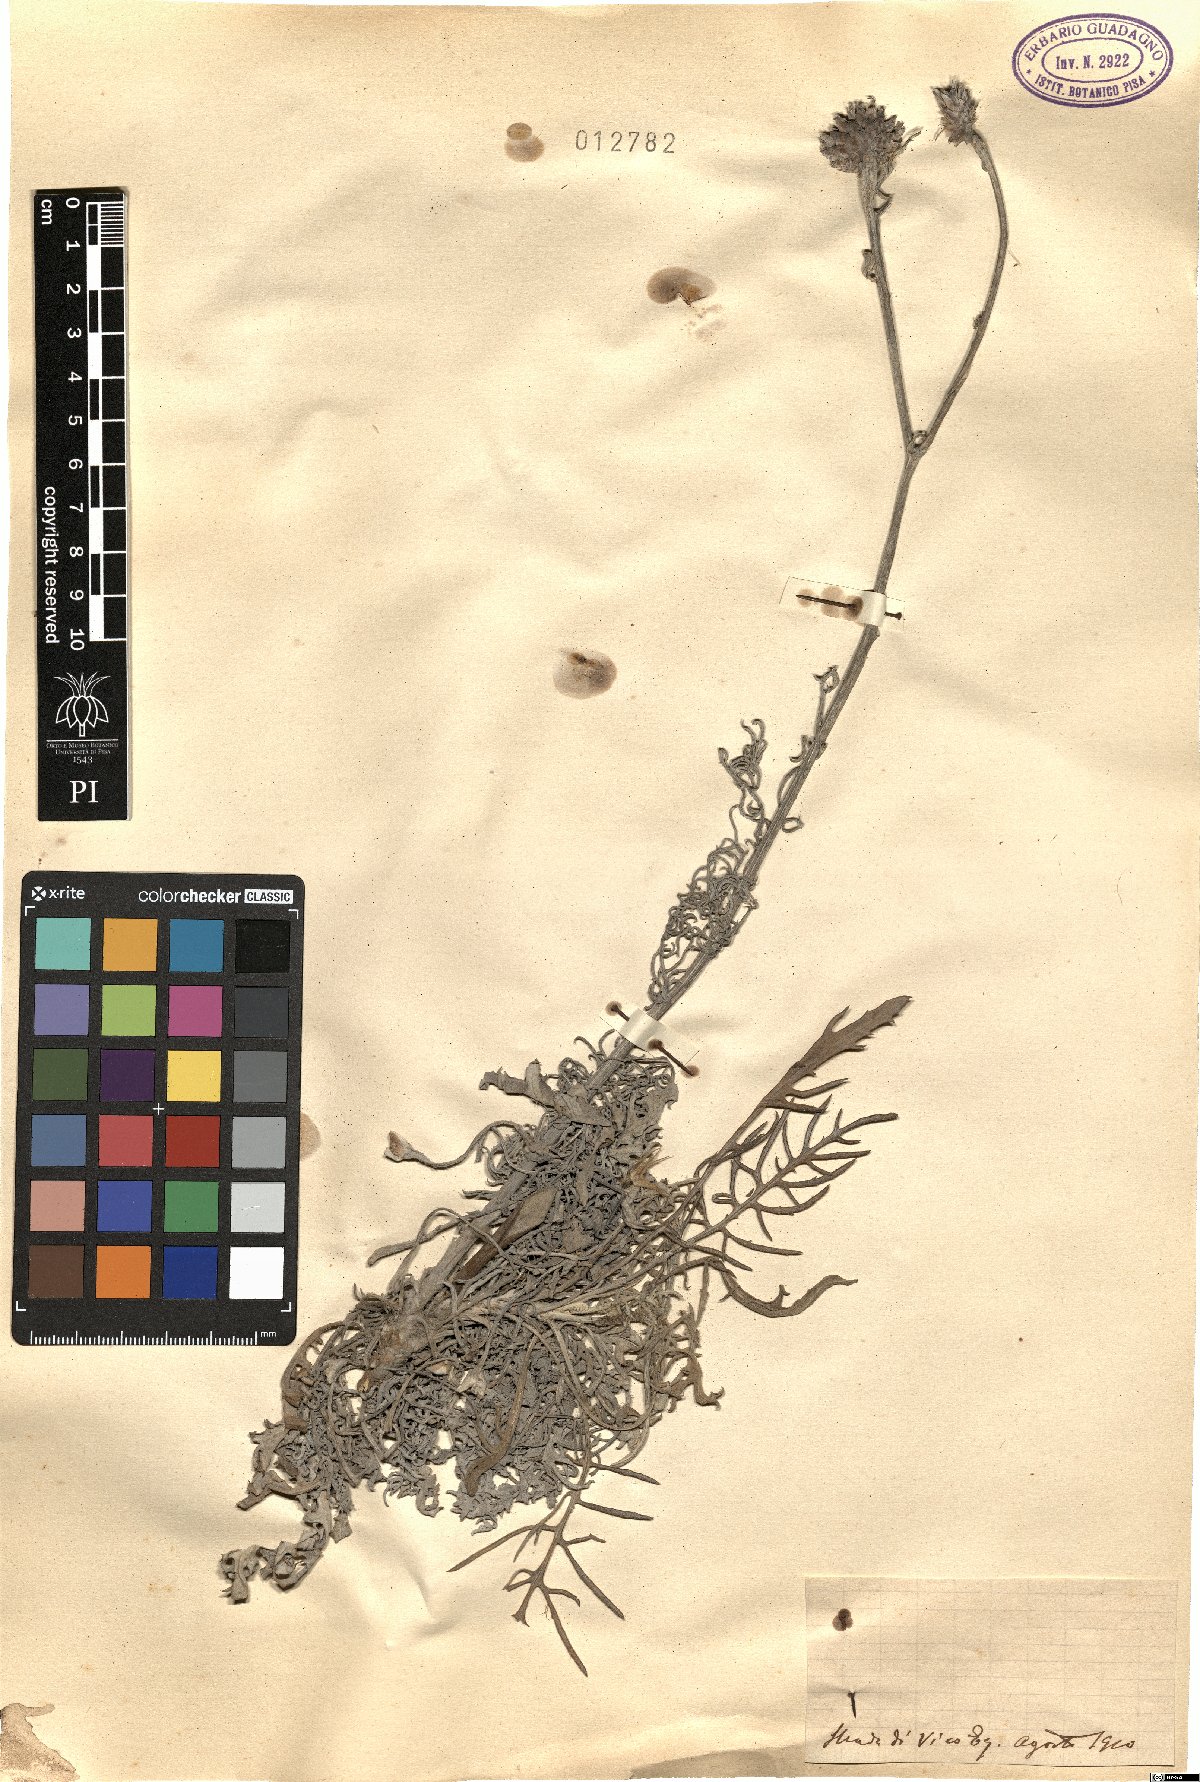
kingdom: Plantae
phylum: Tracheophyta
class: Magnoliopsida
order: Asterales
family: Asteraceae
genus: Centaurea
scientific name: Centaurea
